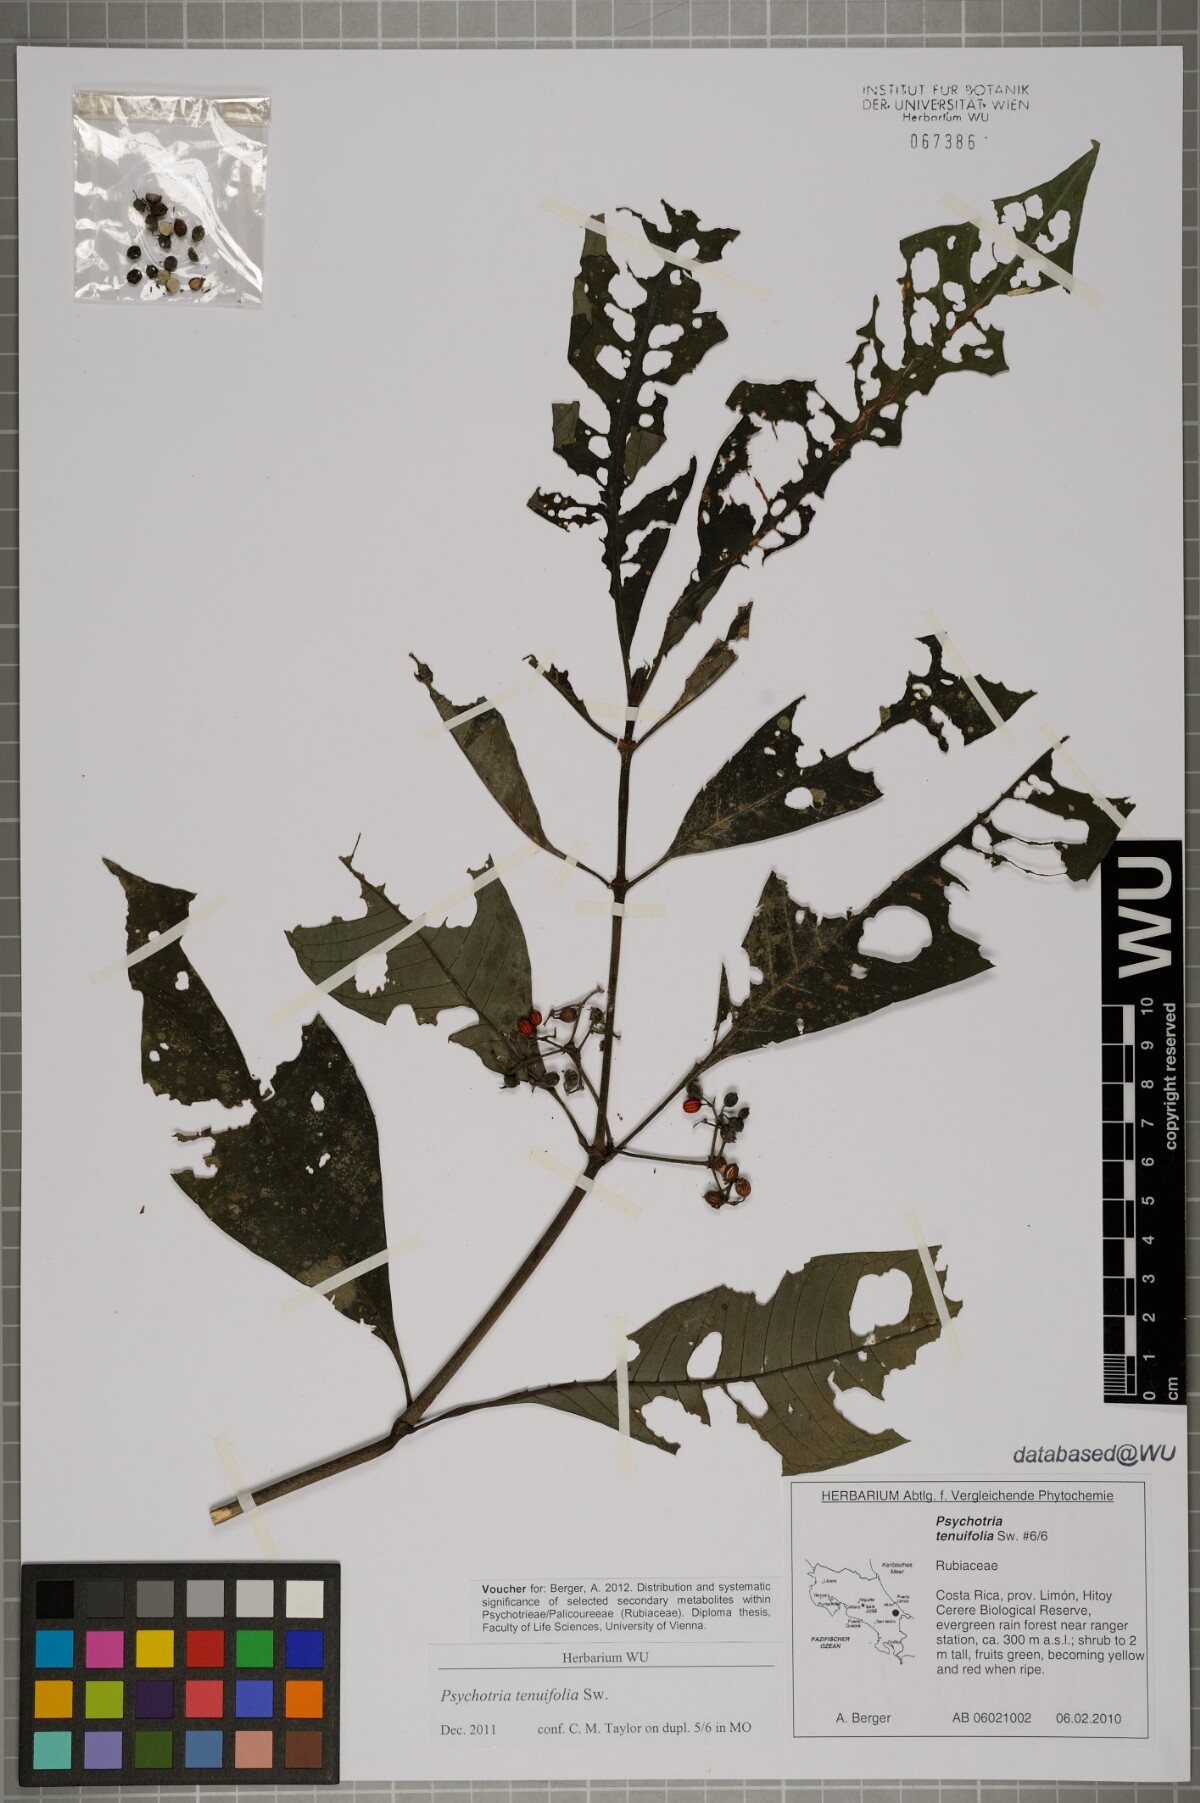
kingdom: Plantae
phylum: Tracheophyta
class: Magnoliopsida
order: Gentianales
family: Rubiaceae
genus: Psychotria
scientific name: Psychotria tenuifolia
